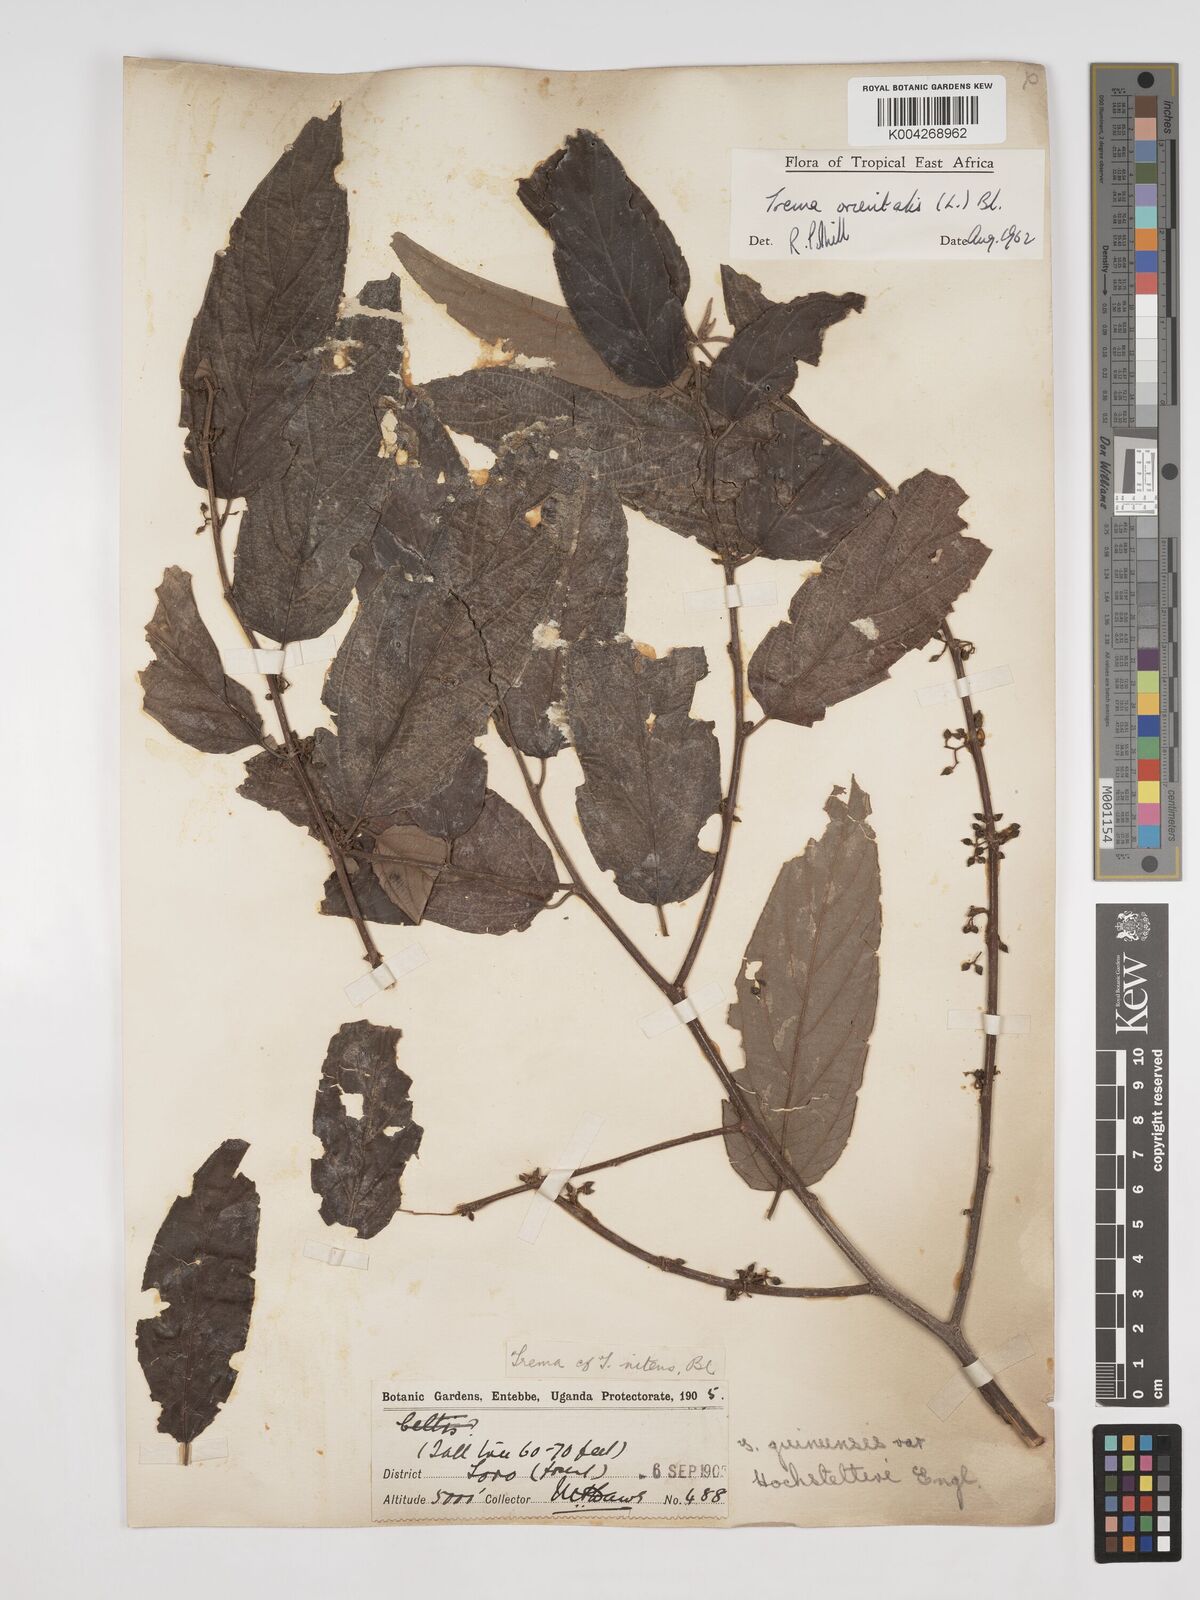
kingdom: Plantae
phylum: Tracheophyta
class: Magnoliopsida
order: Rosales
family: Cannabaceae
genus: Trema
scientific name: Trema orientale
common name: Indian charcoal tree
